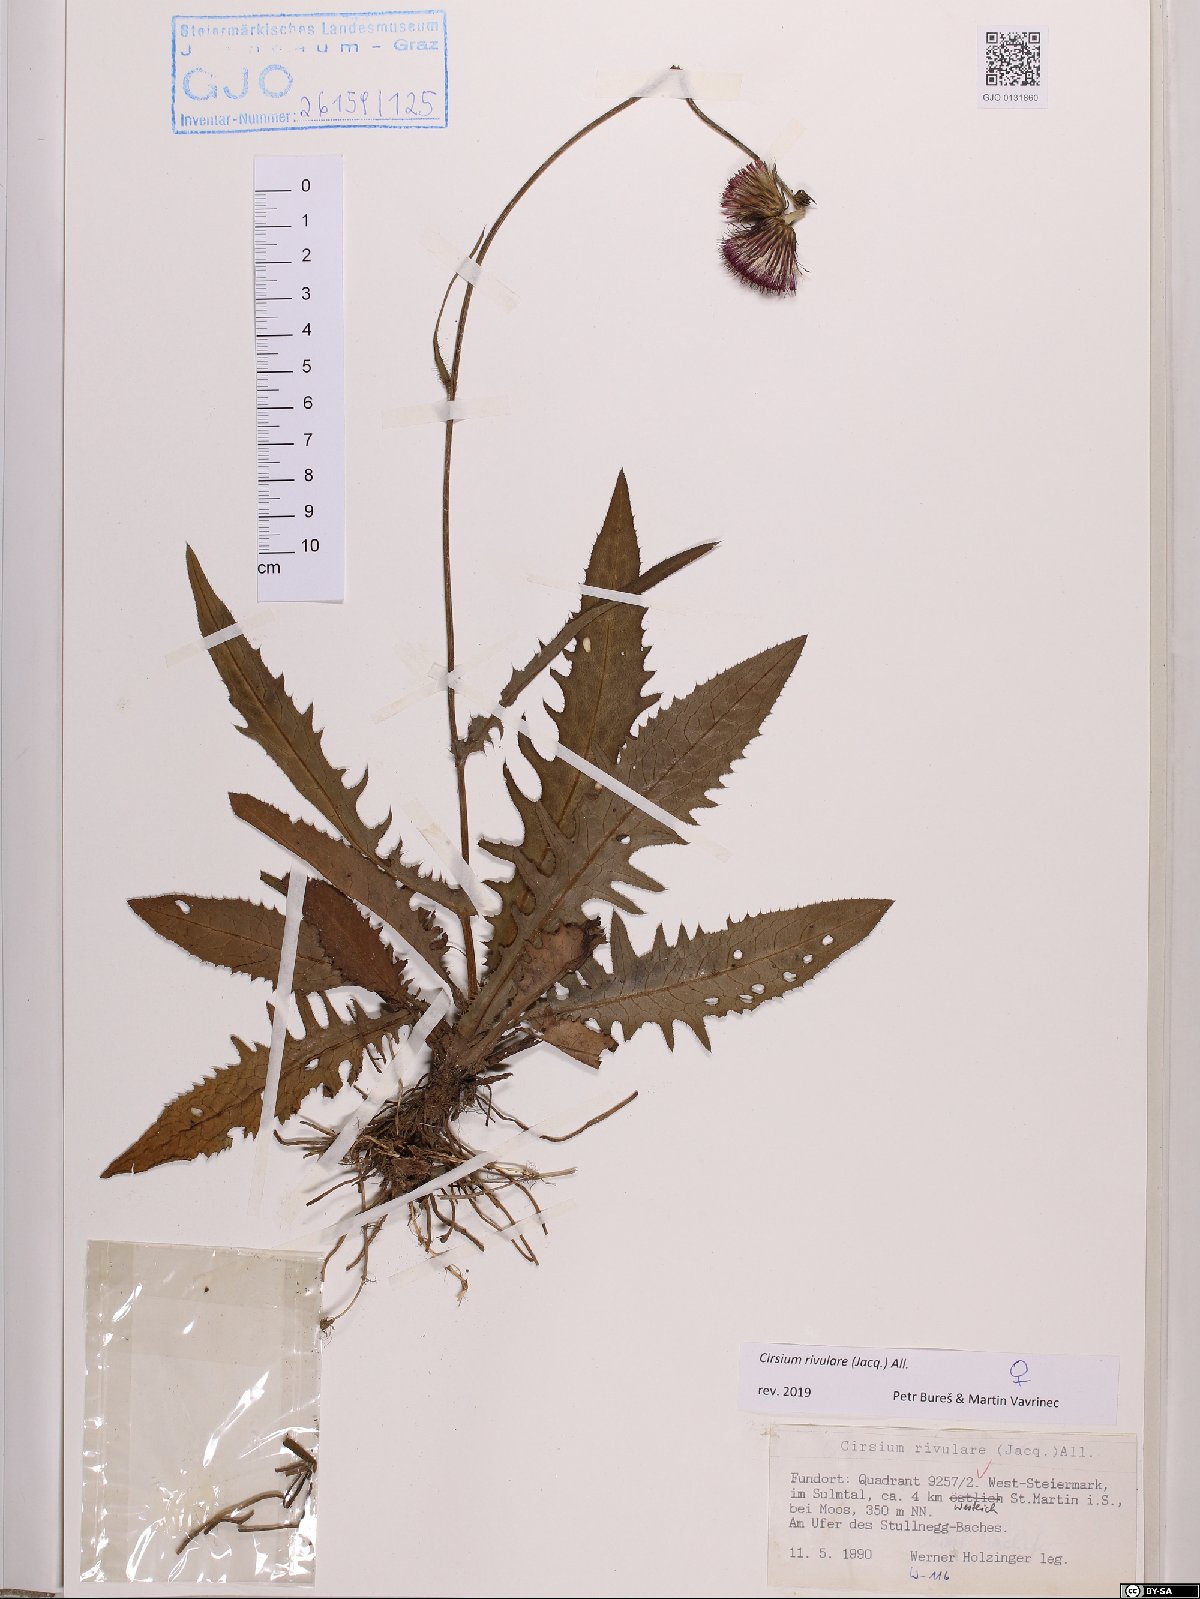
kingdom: Plantae
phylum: Tracheophyta
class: Magnoliopsida
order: Asterales
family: Asteraceae
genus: Cirsium
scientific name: Cirsium rivulare
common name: Brook thistle
